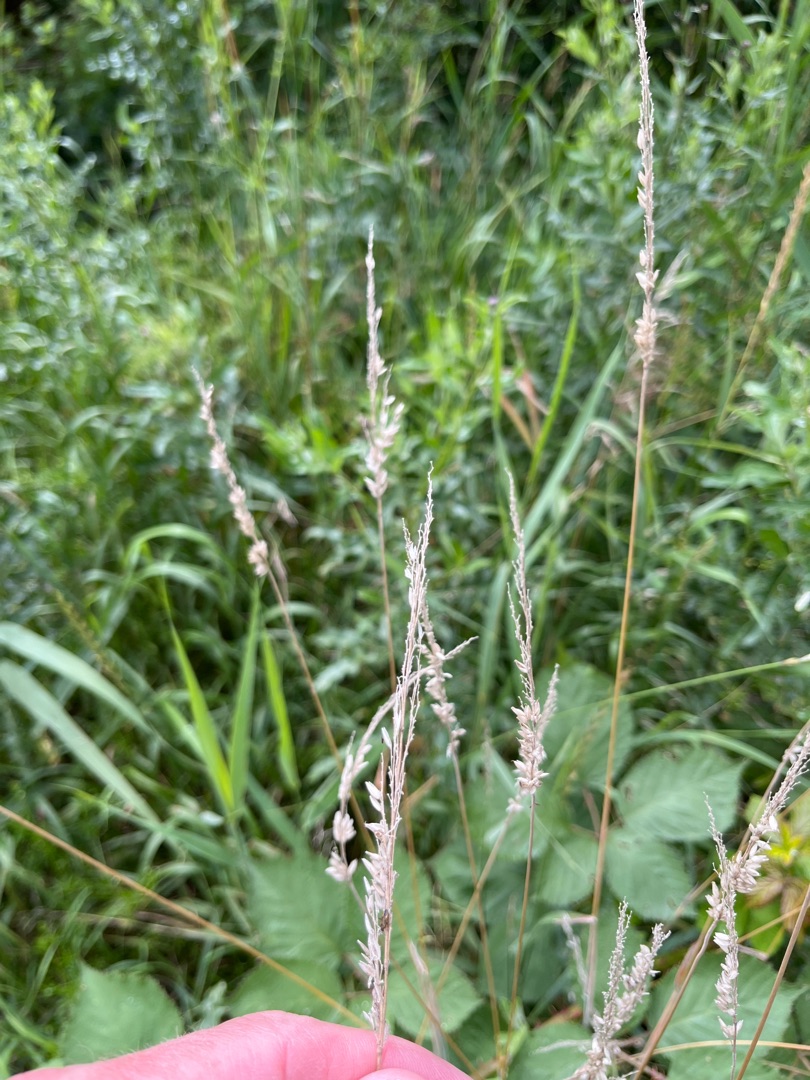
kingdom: Plantae
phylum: Tracheophyta
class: Liliopsida
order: Poales
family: Poaceae
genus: Holcus
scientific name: Holcus lanatus
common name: Fløjlsgræs
